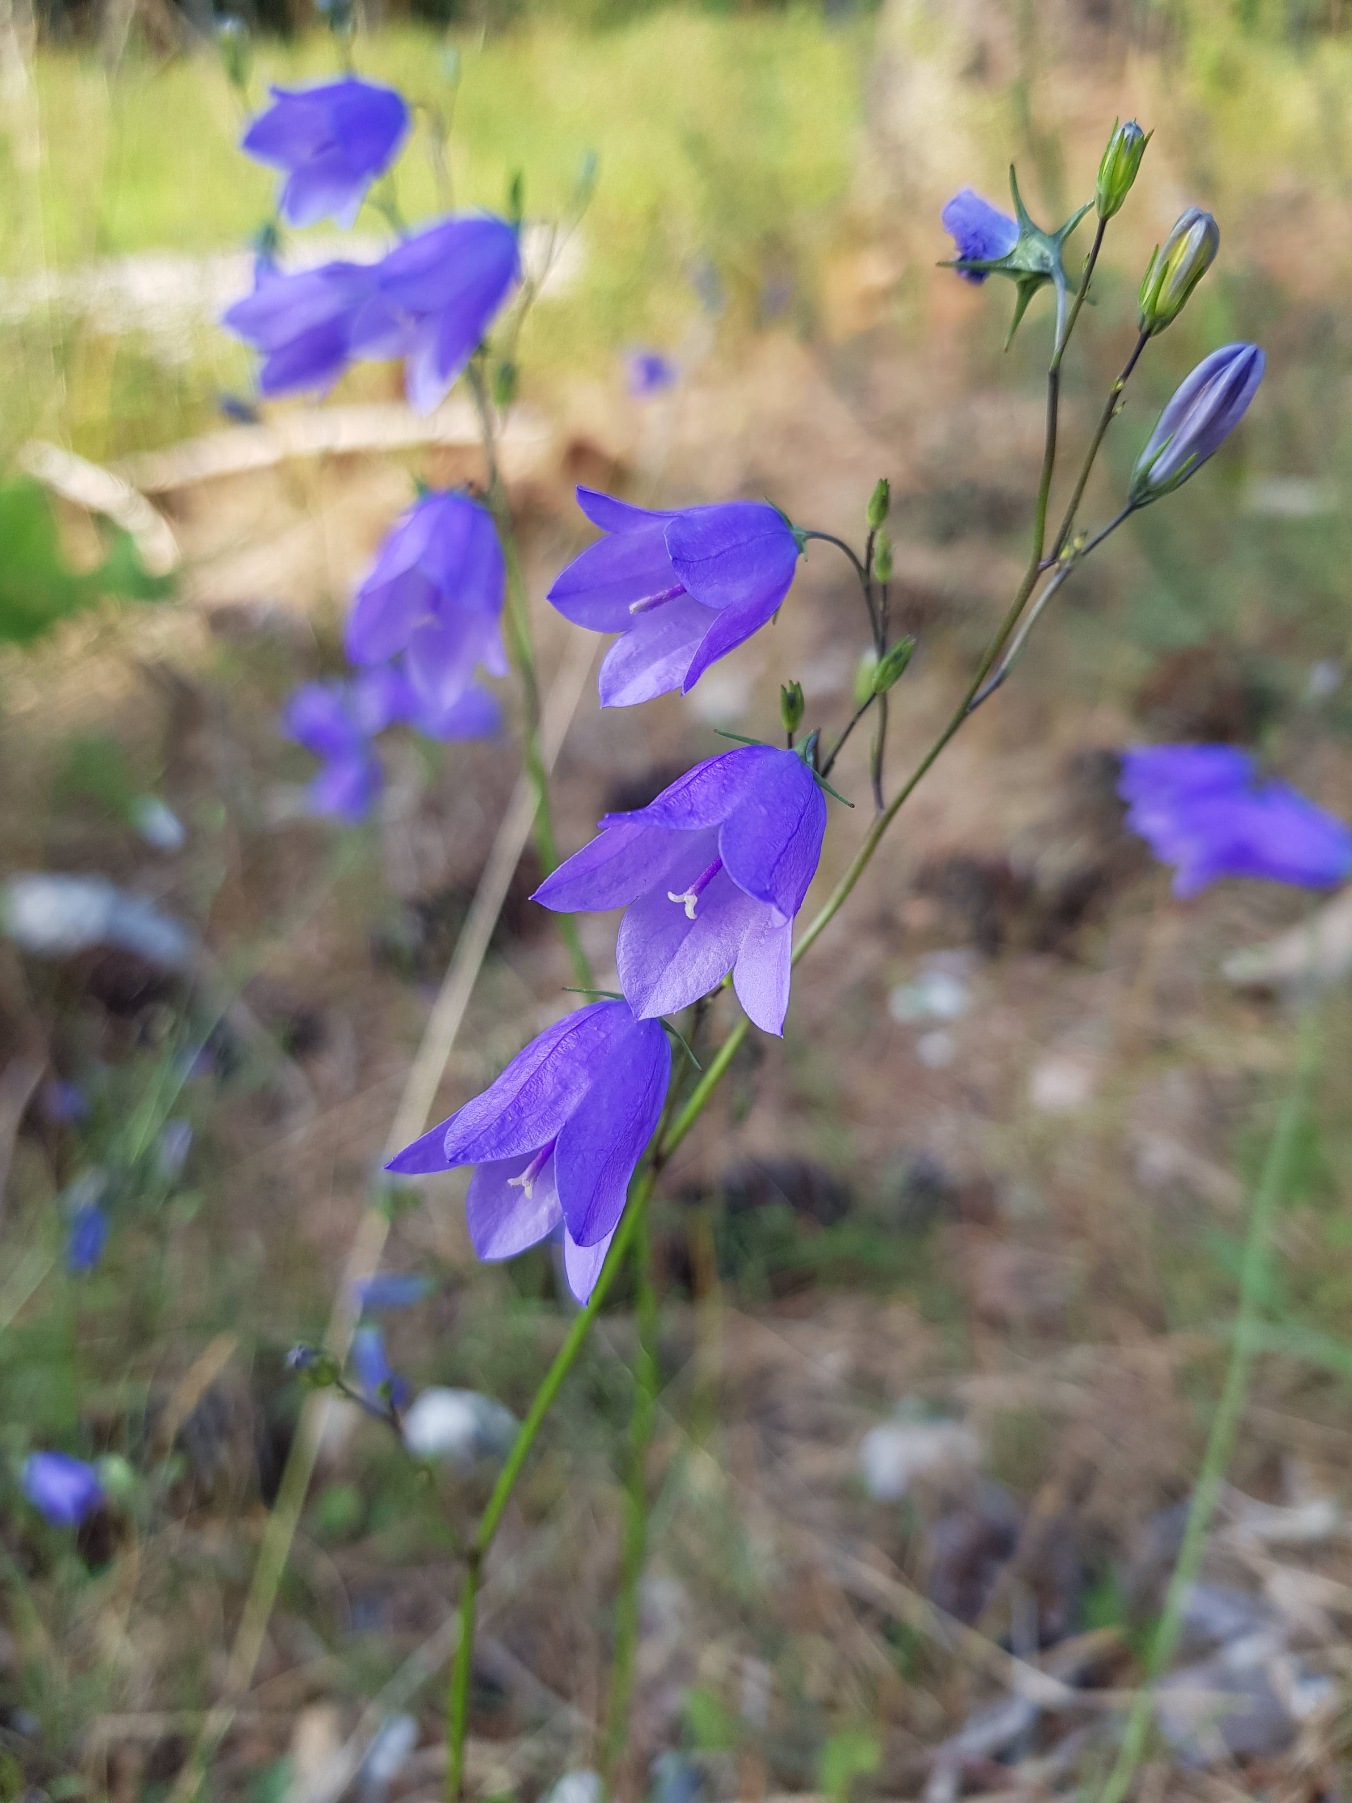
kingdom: Plantae
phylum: Tracheophyta
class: Magnoliopsida
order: Asterales
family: Campanulaceae
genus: Campanula
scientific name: Campanula rotundifolia
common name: Liden klokke
